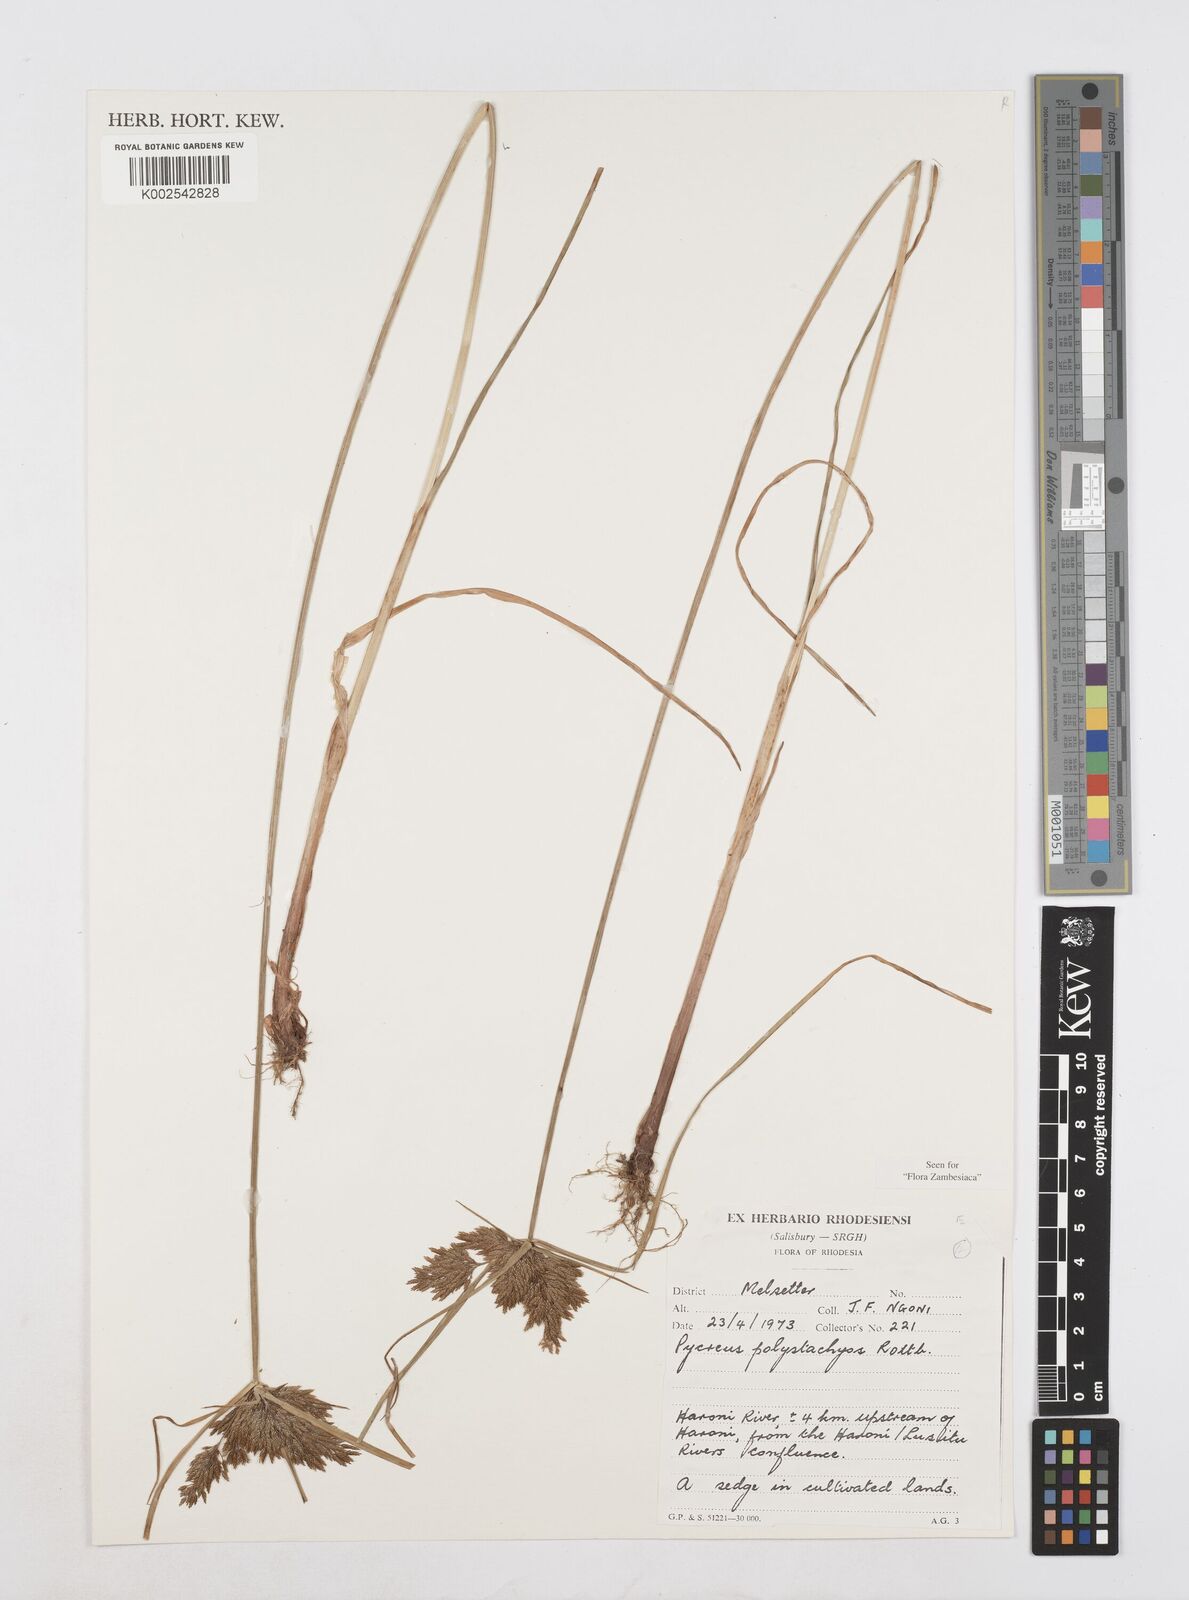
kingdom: Plantae
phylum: Tracheophyta
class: Liliopsida
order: Poales
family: Cyperaceae
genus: Cyperus
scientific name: Cyperus polystachyos
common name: Bunchy flat sedge
